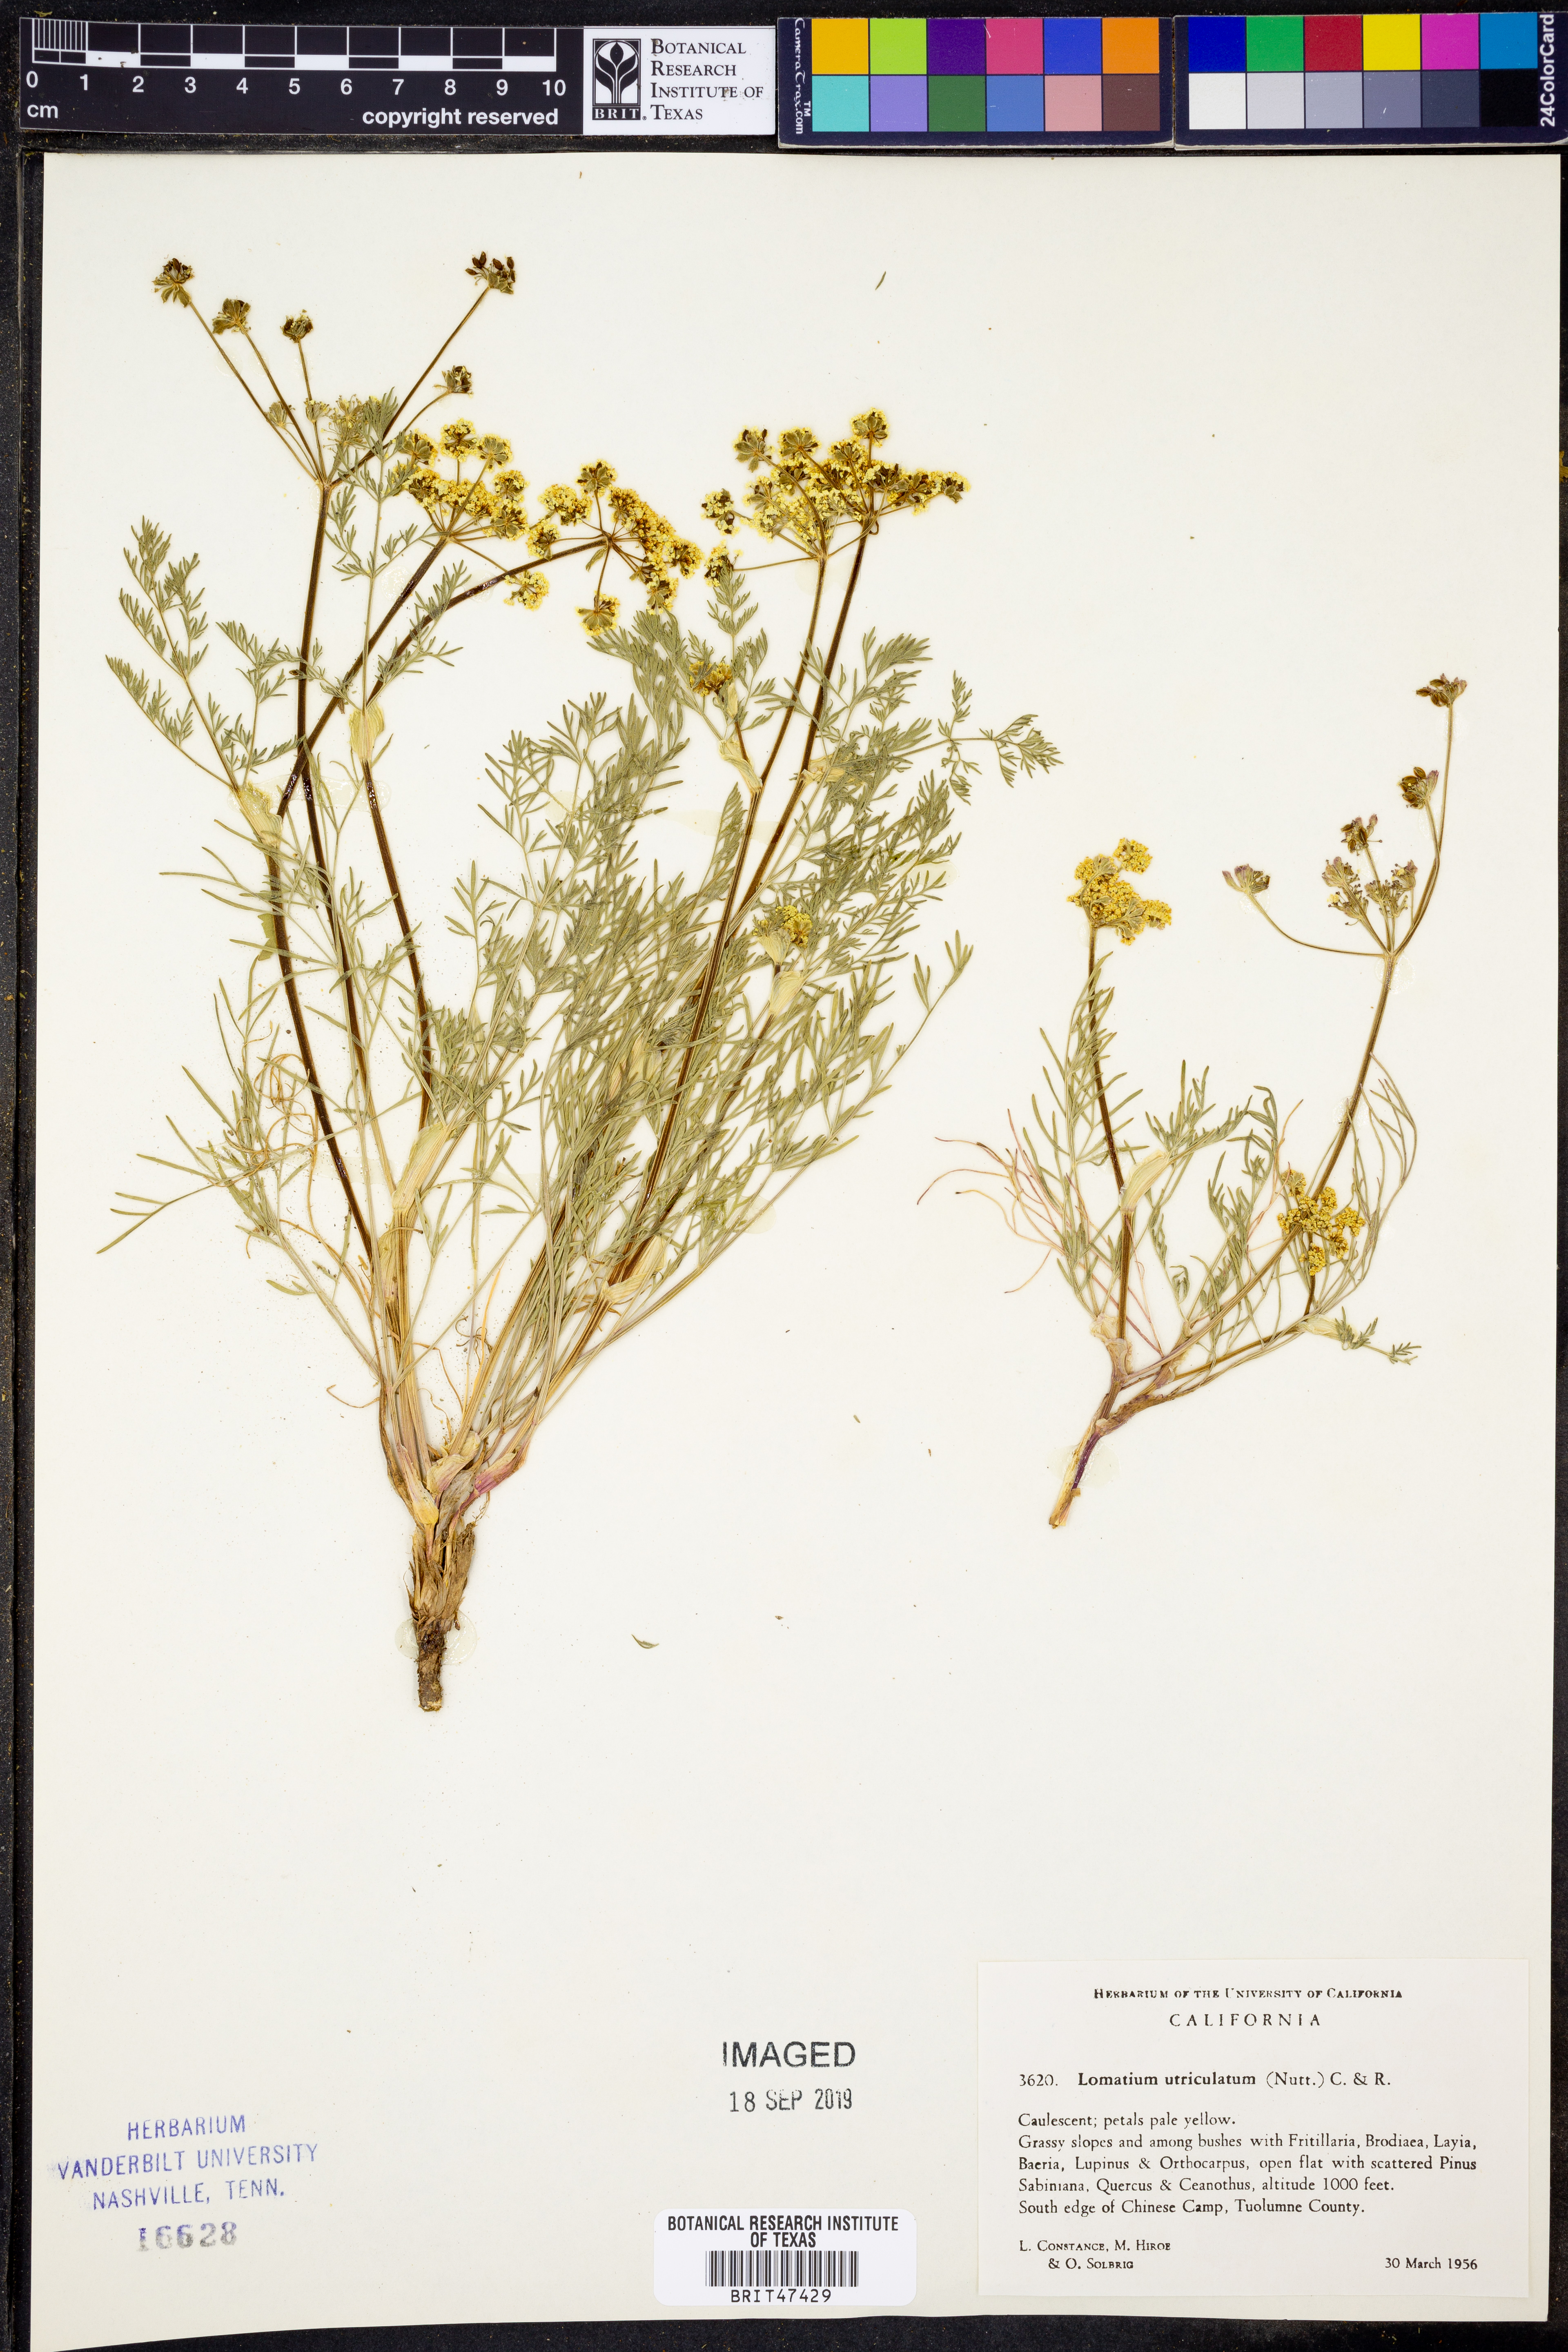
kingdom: Plantae
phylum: Tracheophyta
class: Magnoliopsida
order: Apiales
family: Apiaceae
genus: Lomatium
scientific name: Lomatium utriculatum
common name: Fine-leaf desert-parsley
